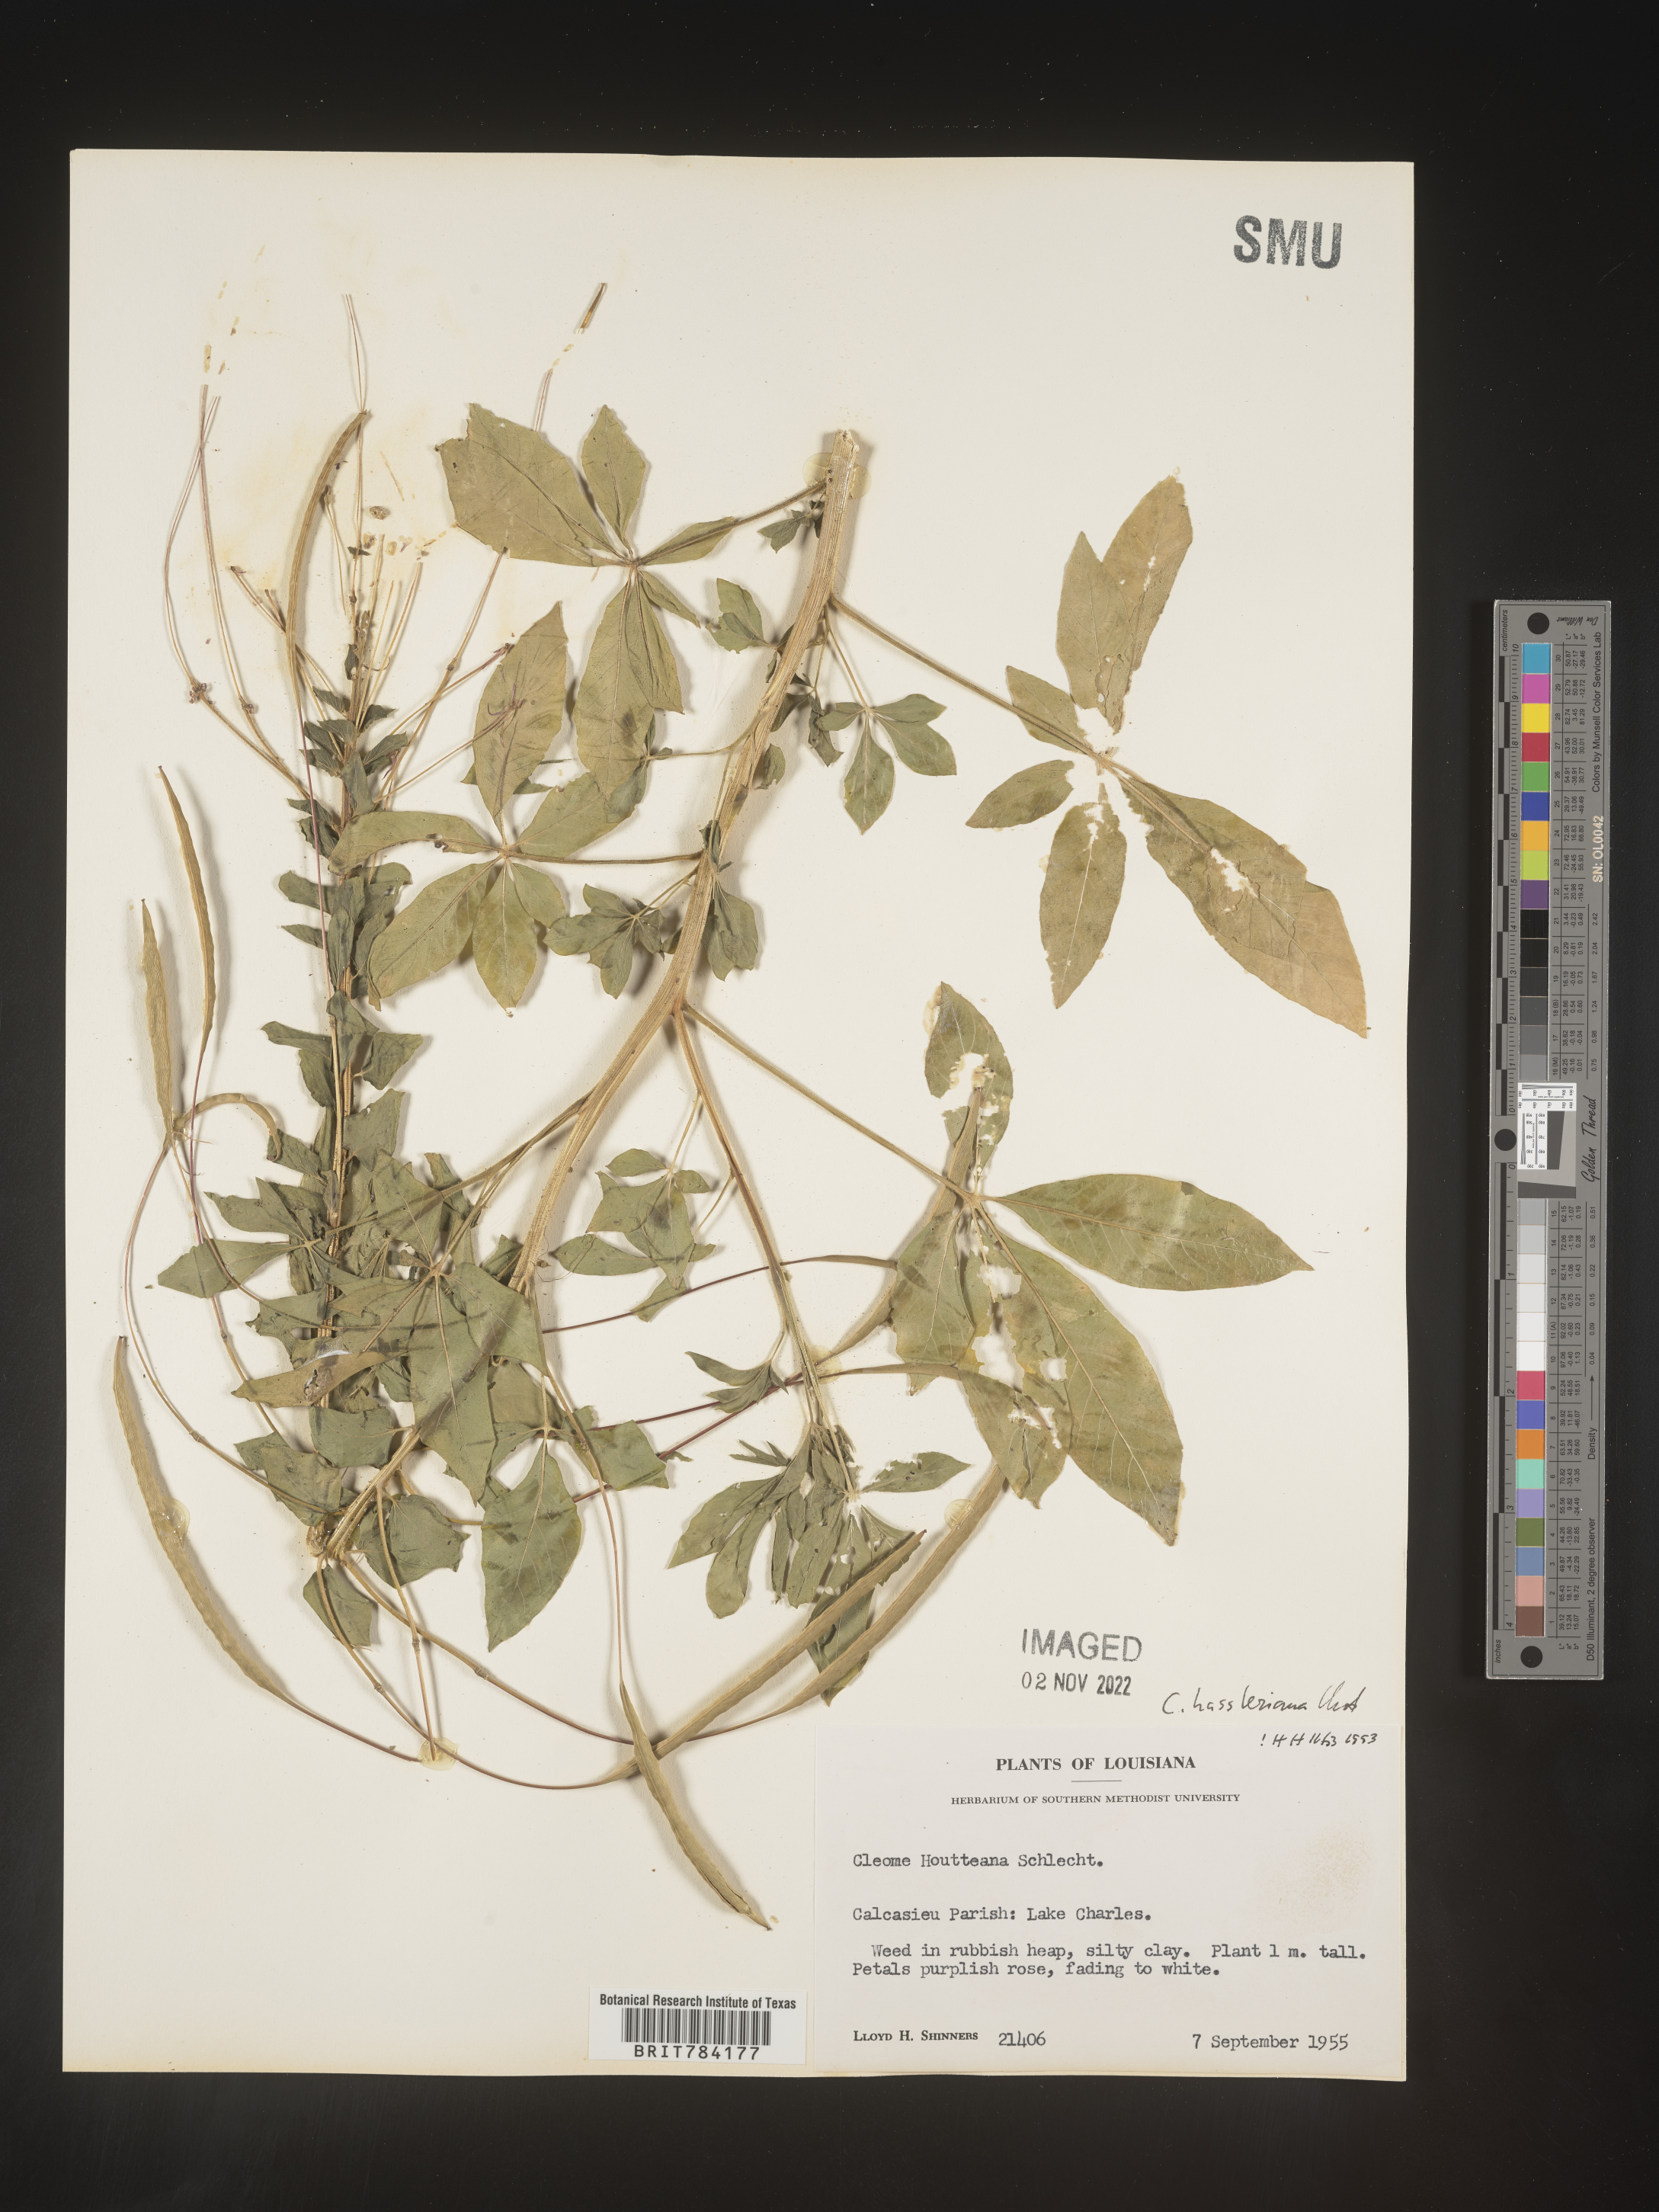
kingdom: Plantae
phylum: Tracheophyta
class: Magnoliopsida
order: Brassicales
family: Cleomaceae
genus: Cleome
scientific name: Cleome
